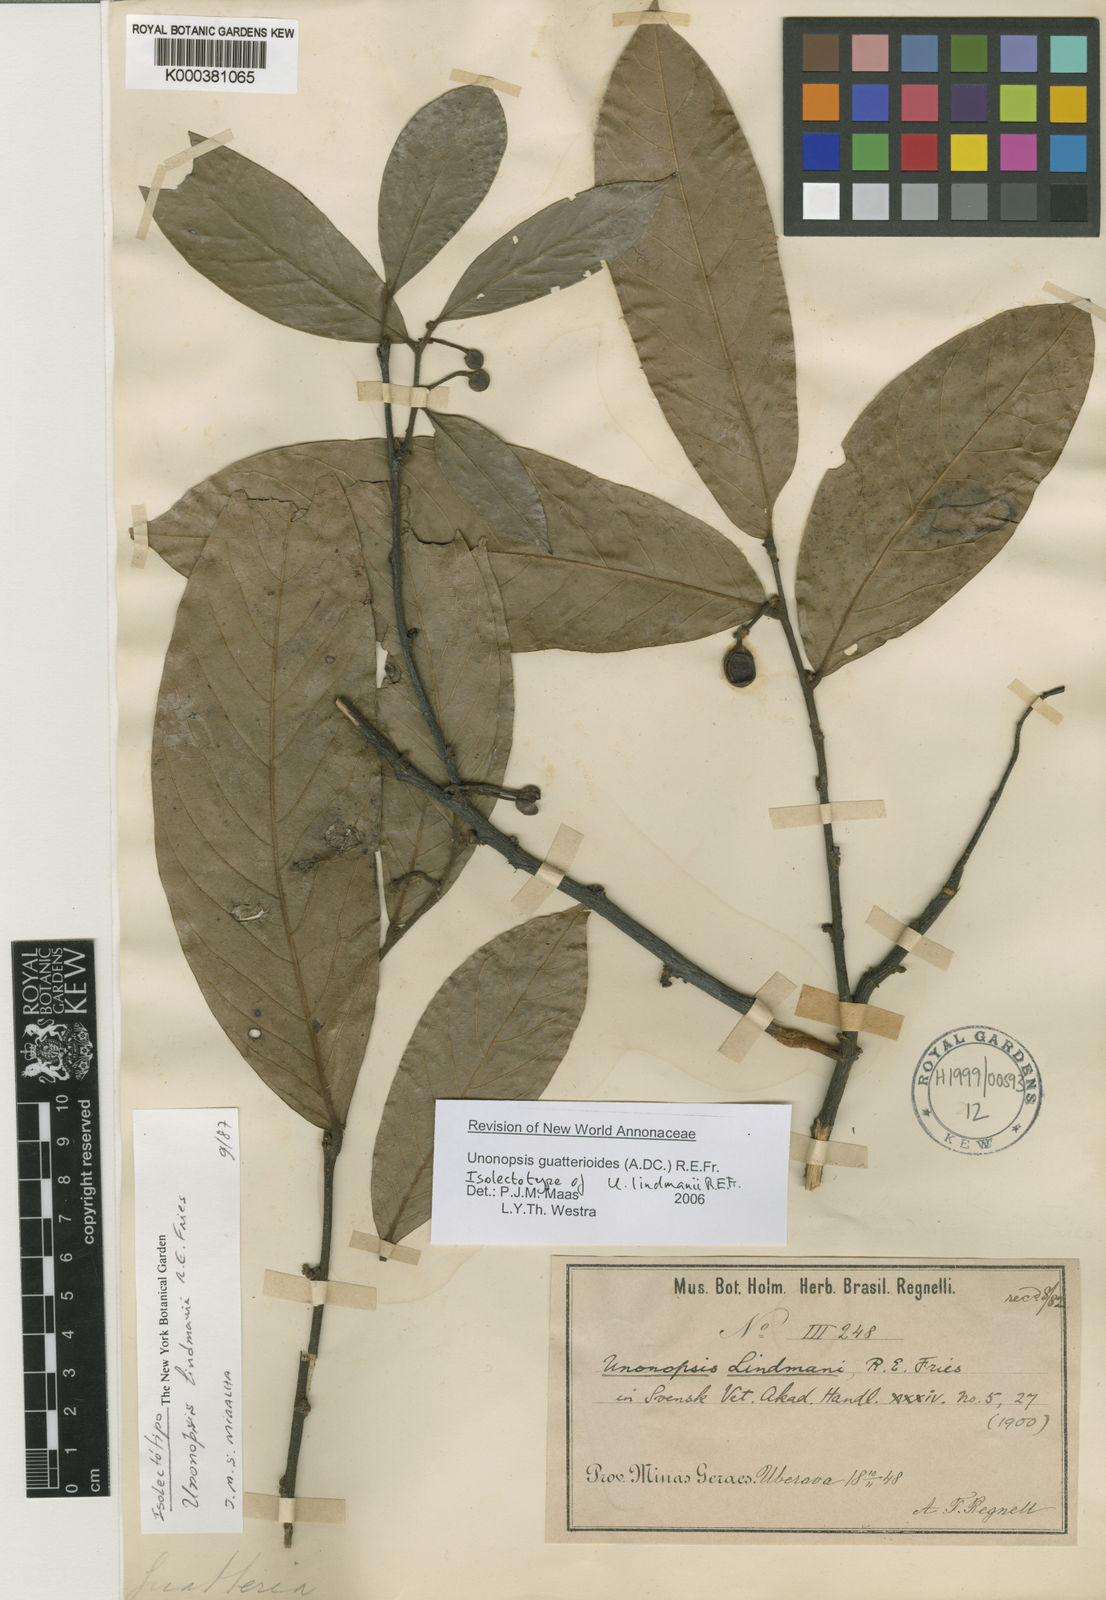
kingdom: Plantae
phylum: Tracheophyta
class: Magnoliopsida
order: Magnoliales
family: Annonaceae
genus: Unonopsis
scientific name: Unonopsis guatterioides
